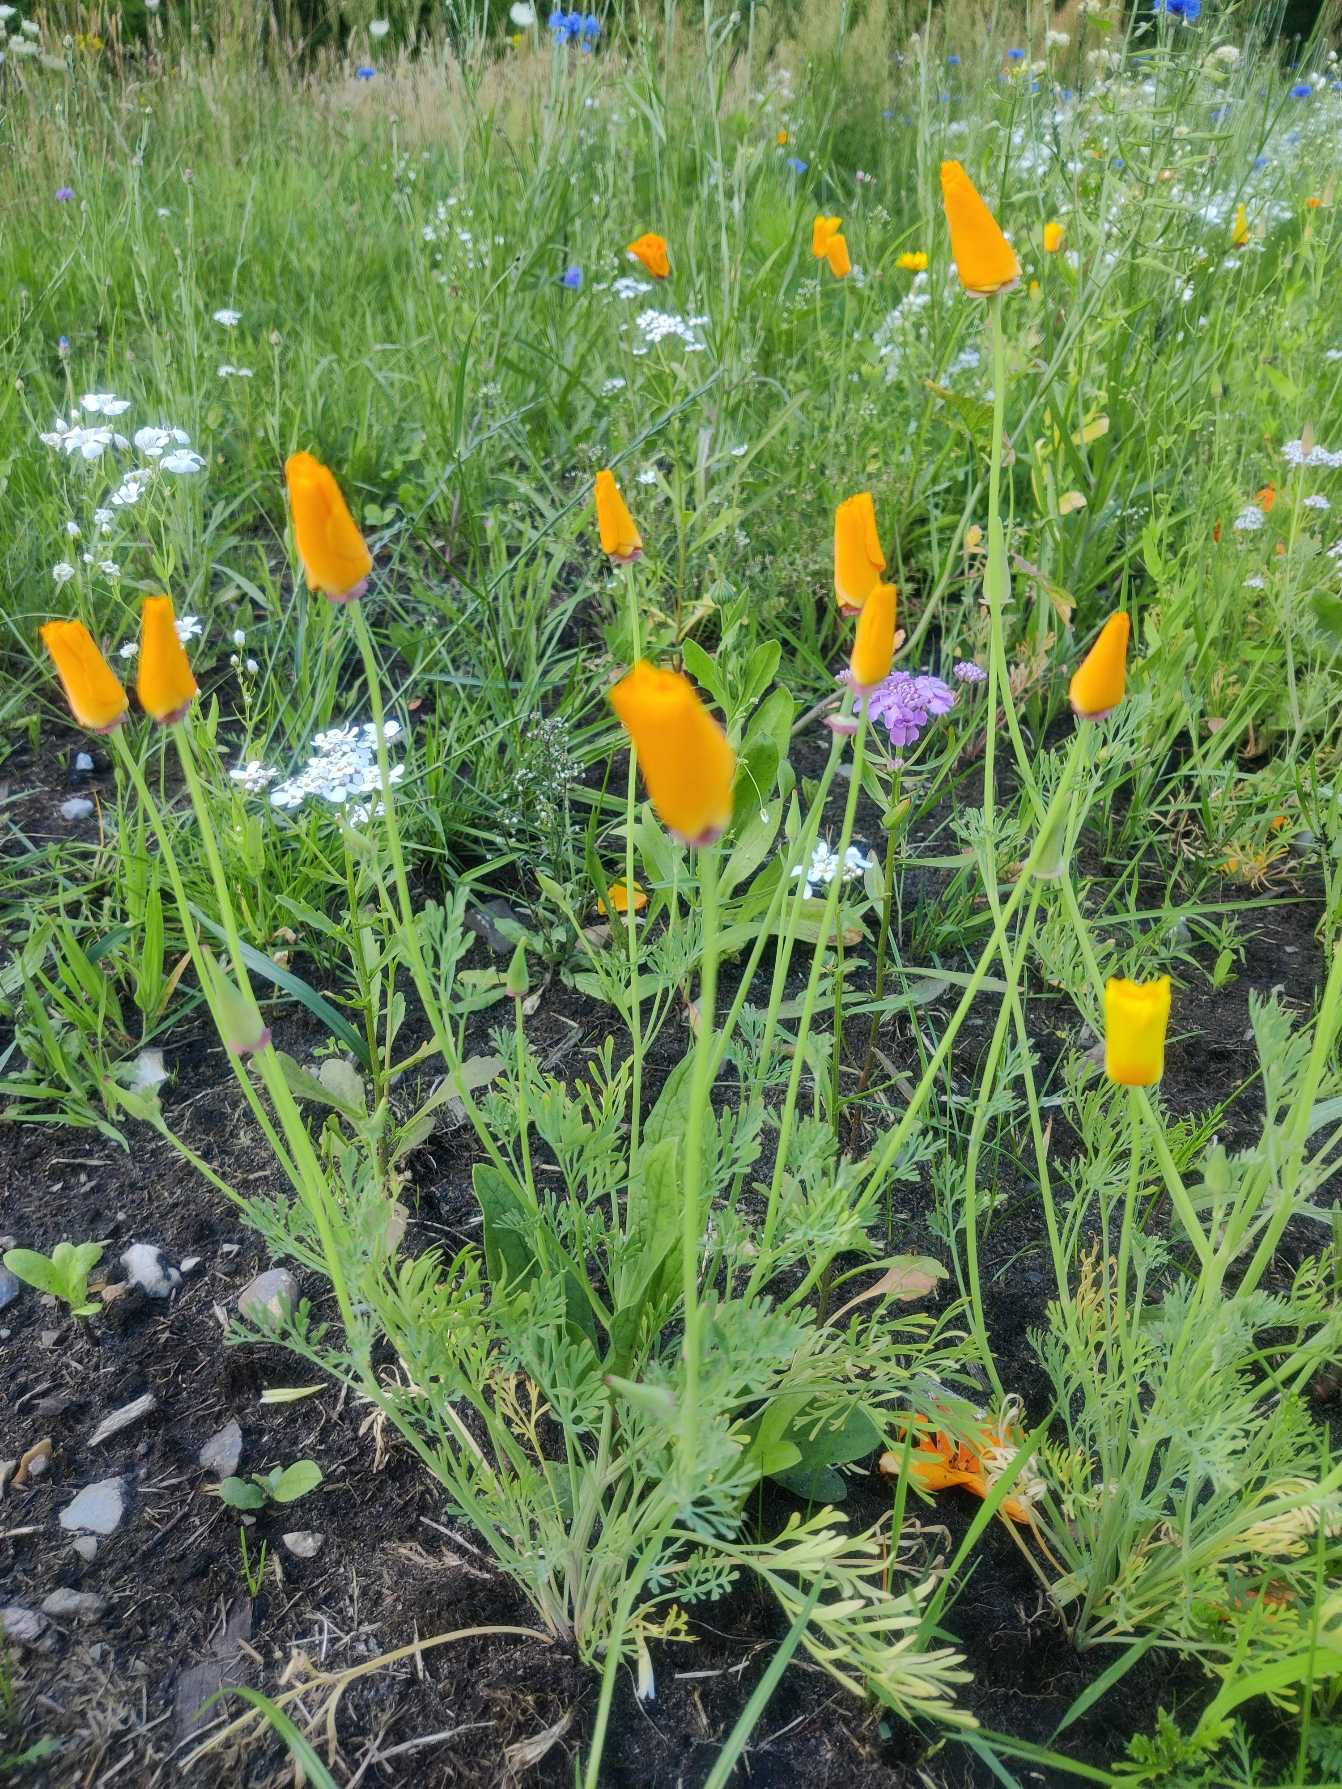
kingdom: Plantae
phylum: Tracheophyta
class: Magnoliopsida
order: Ranunculales
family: Papaveraceae
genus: Eschscholzia
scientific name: Eschscholzia californica
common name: Guldvalmue
